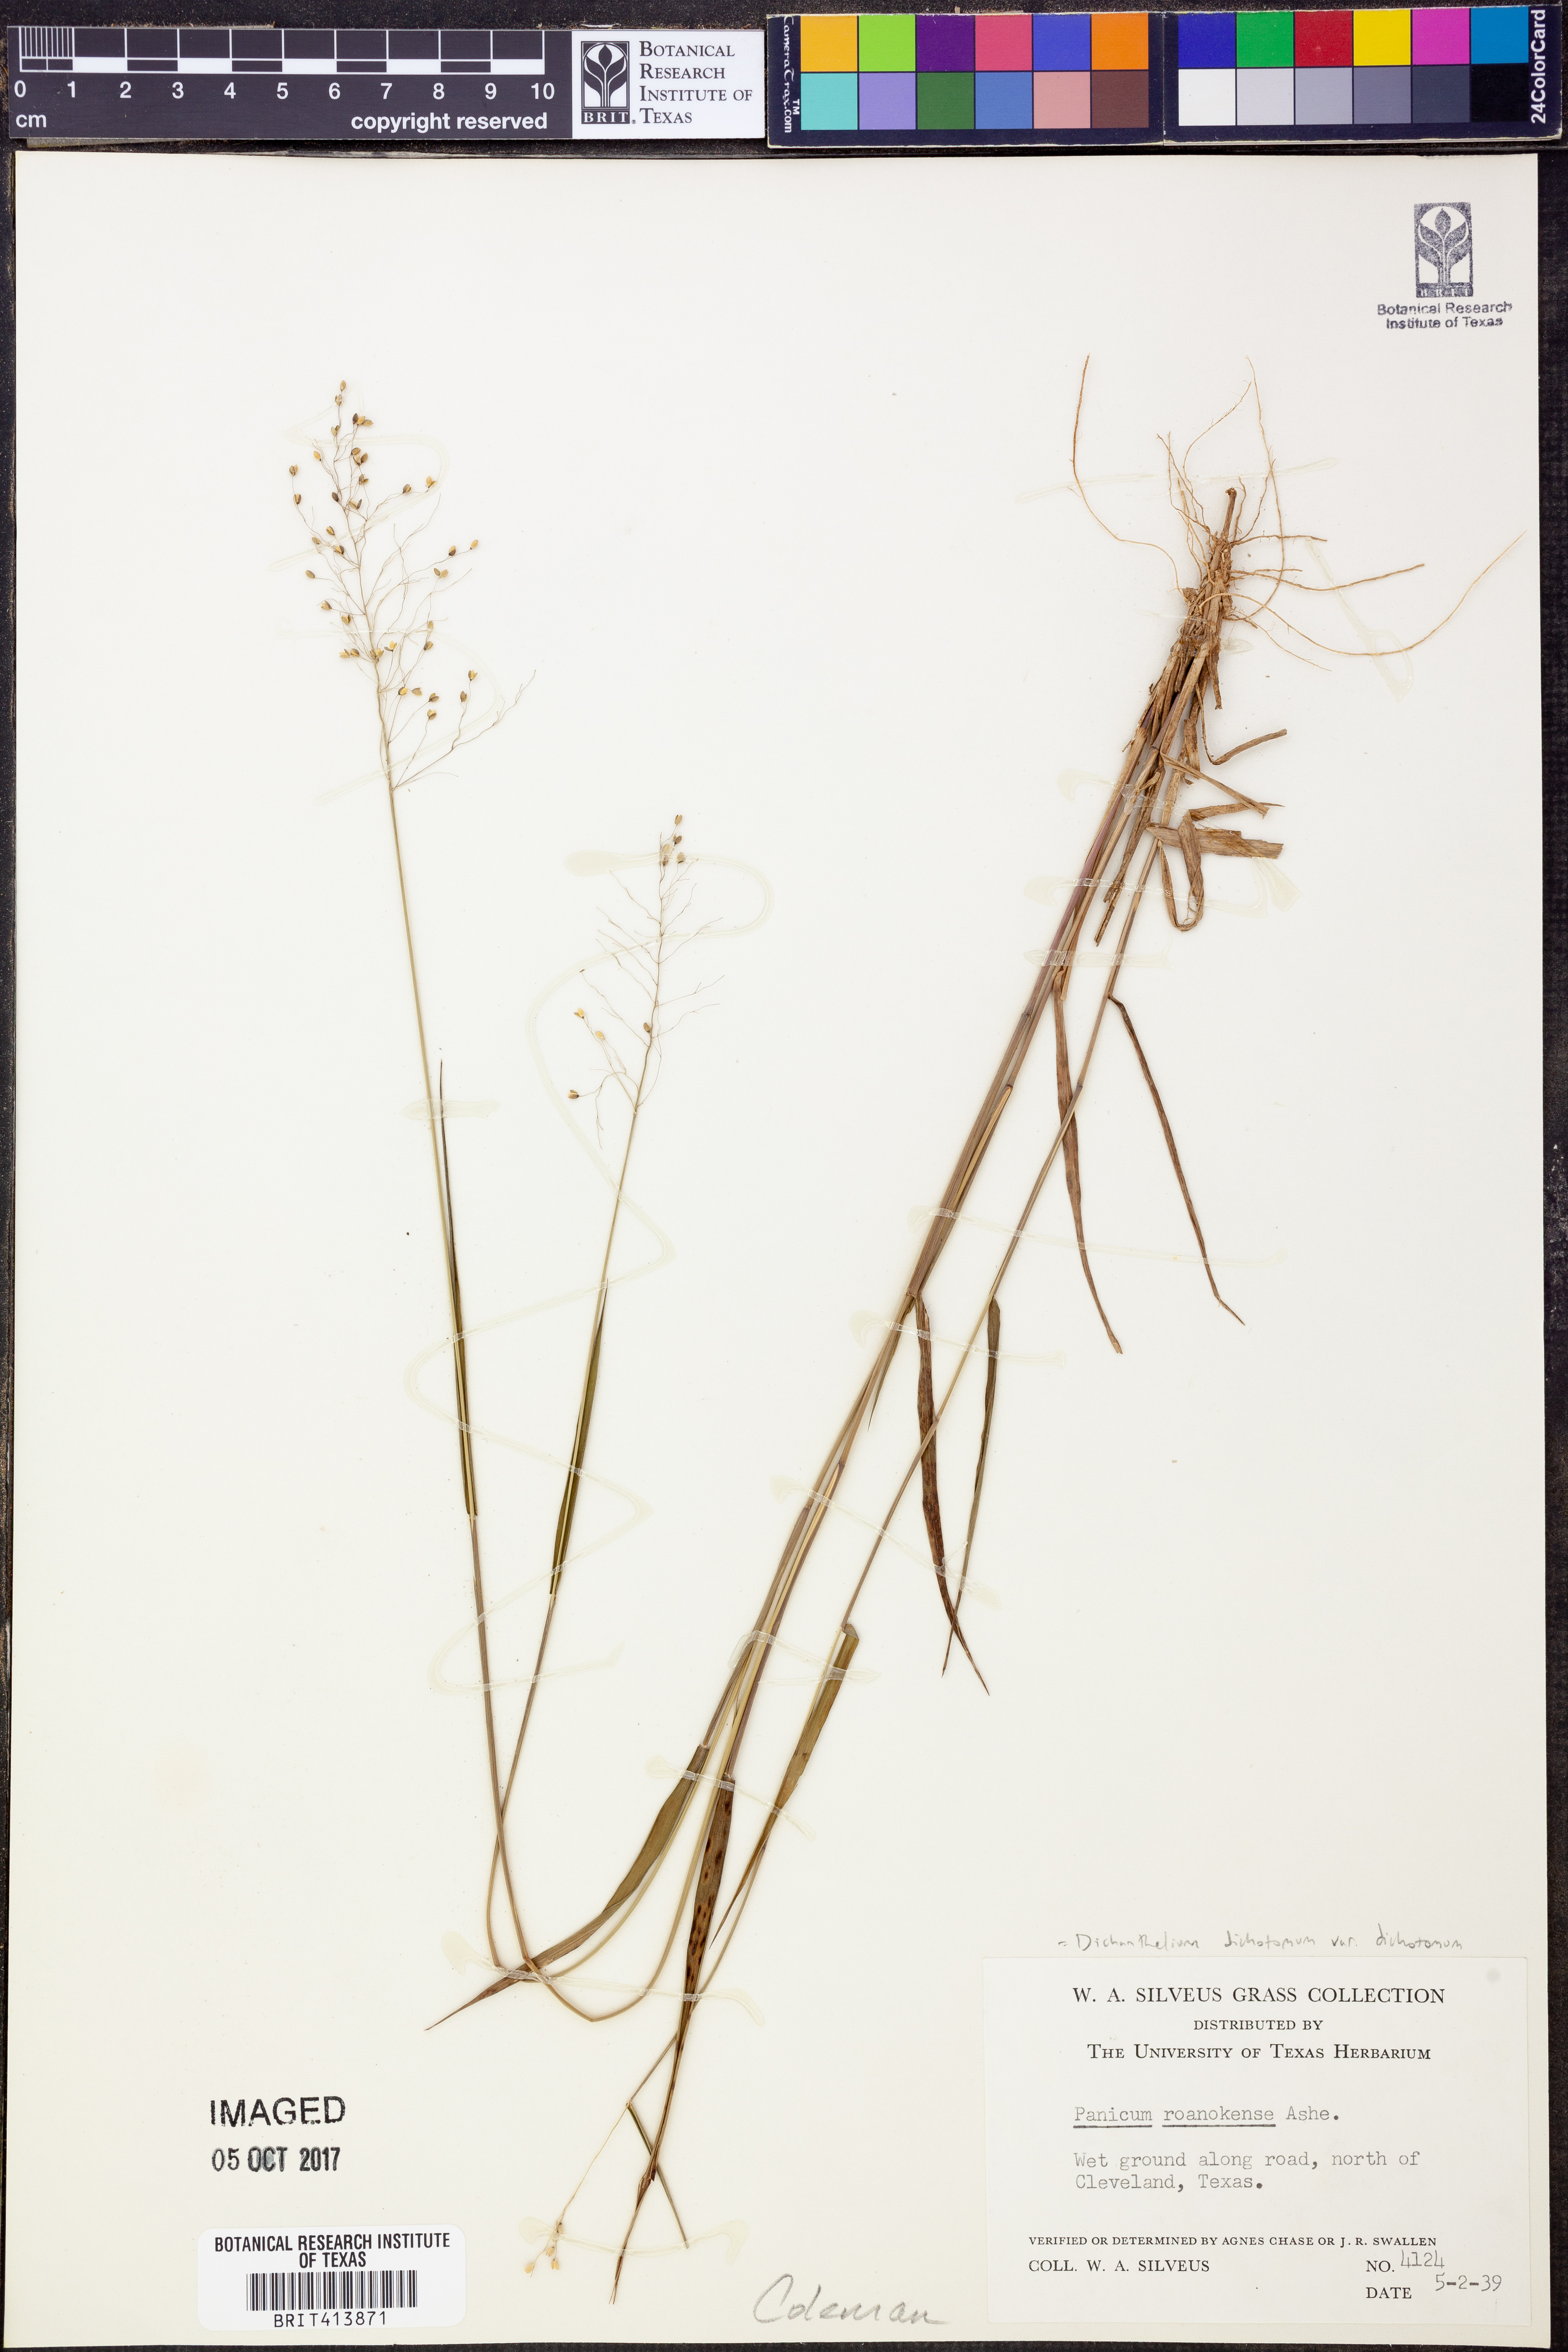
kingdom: Plantae
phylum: Tracheophyta
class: Liliopsida
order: Poales
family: Poaceae
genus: Dichanthelium
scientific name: Dichanthelium roanokense
